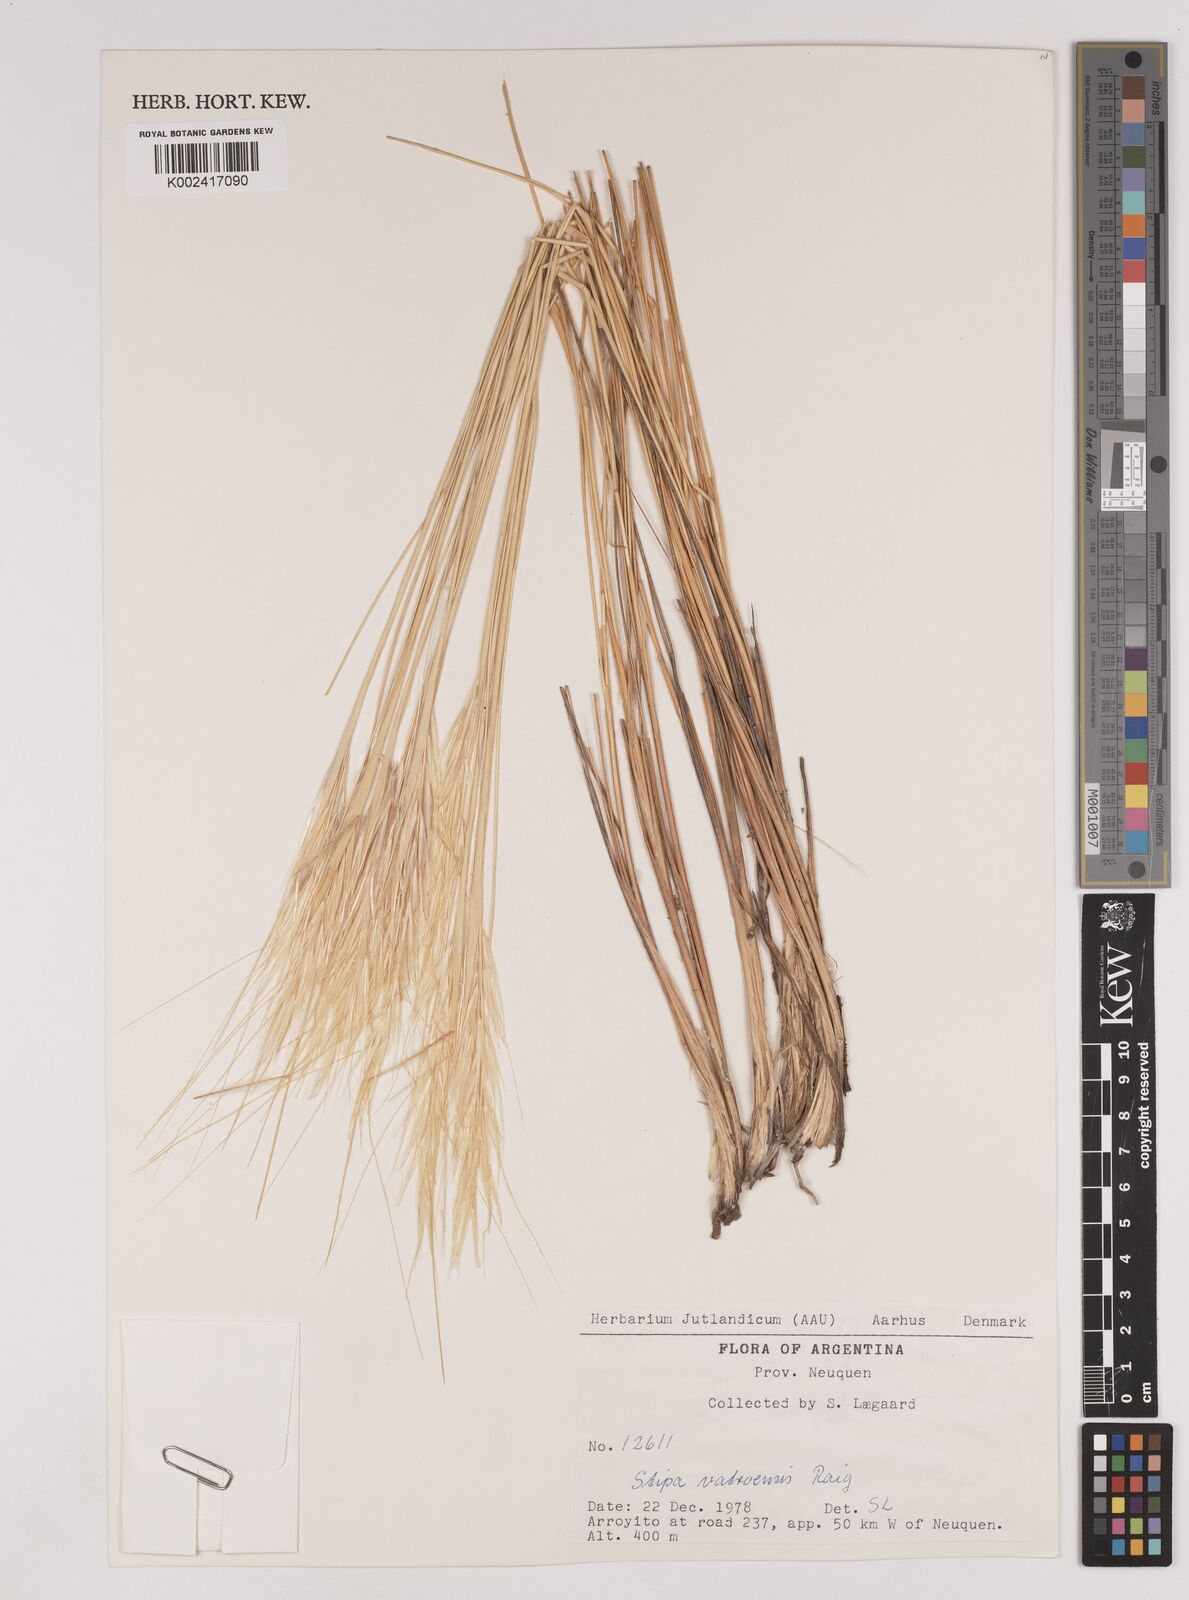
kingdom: Plantae
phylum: Tracheophyta
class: Liliopsida
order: Poales
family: Poaceae
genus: Pappostipa
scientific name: Pappostipa vatroensis
